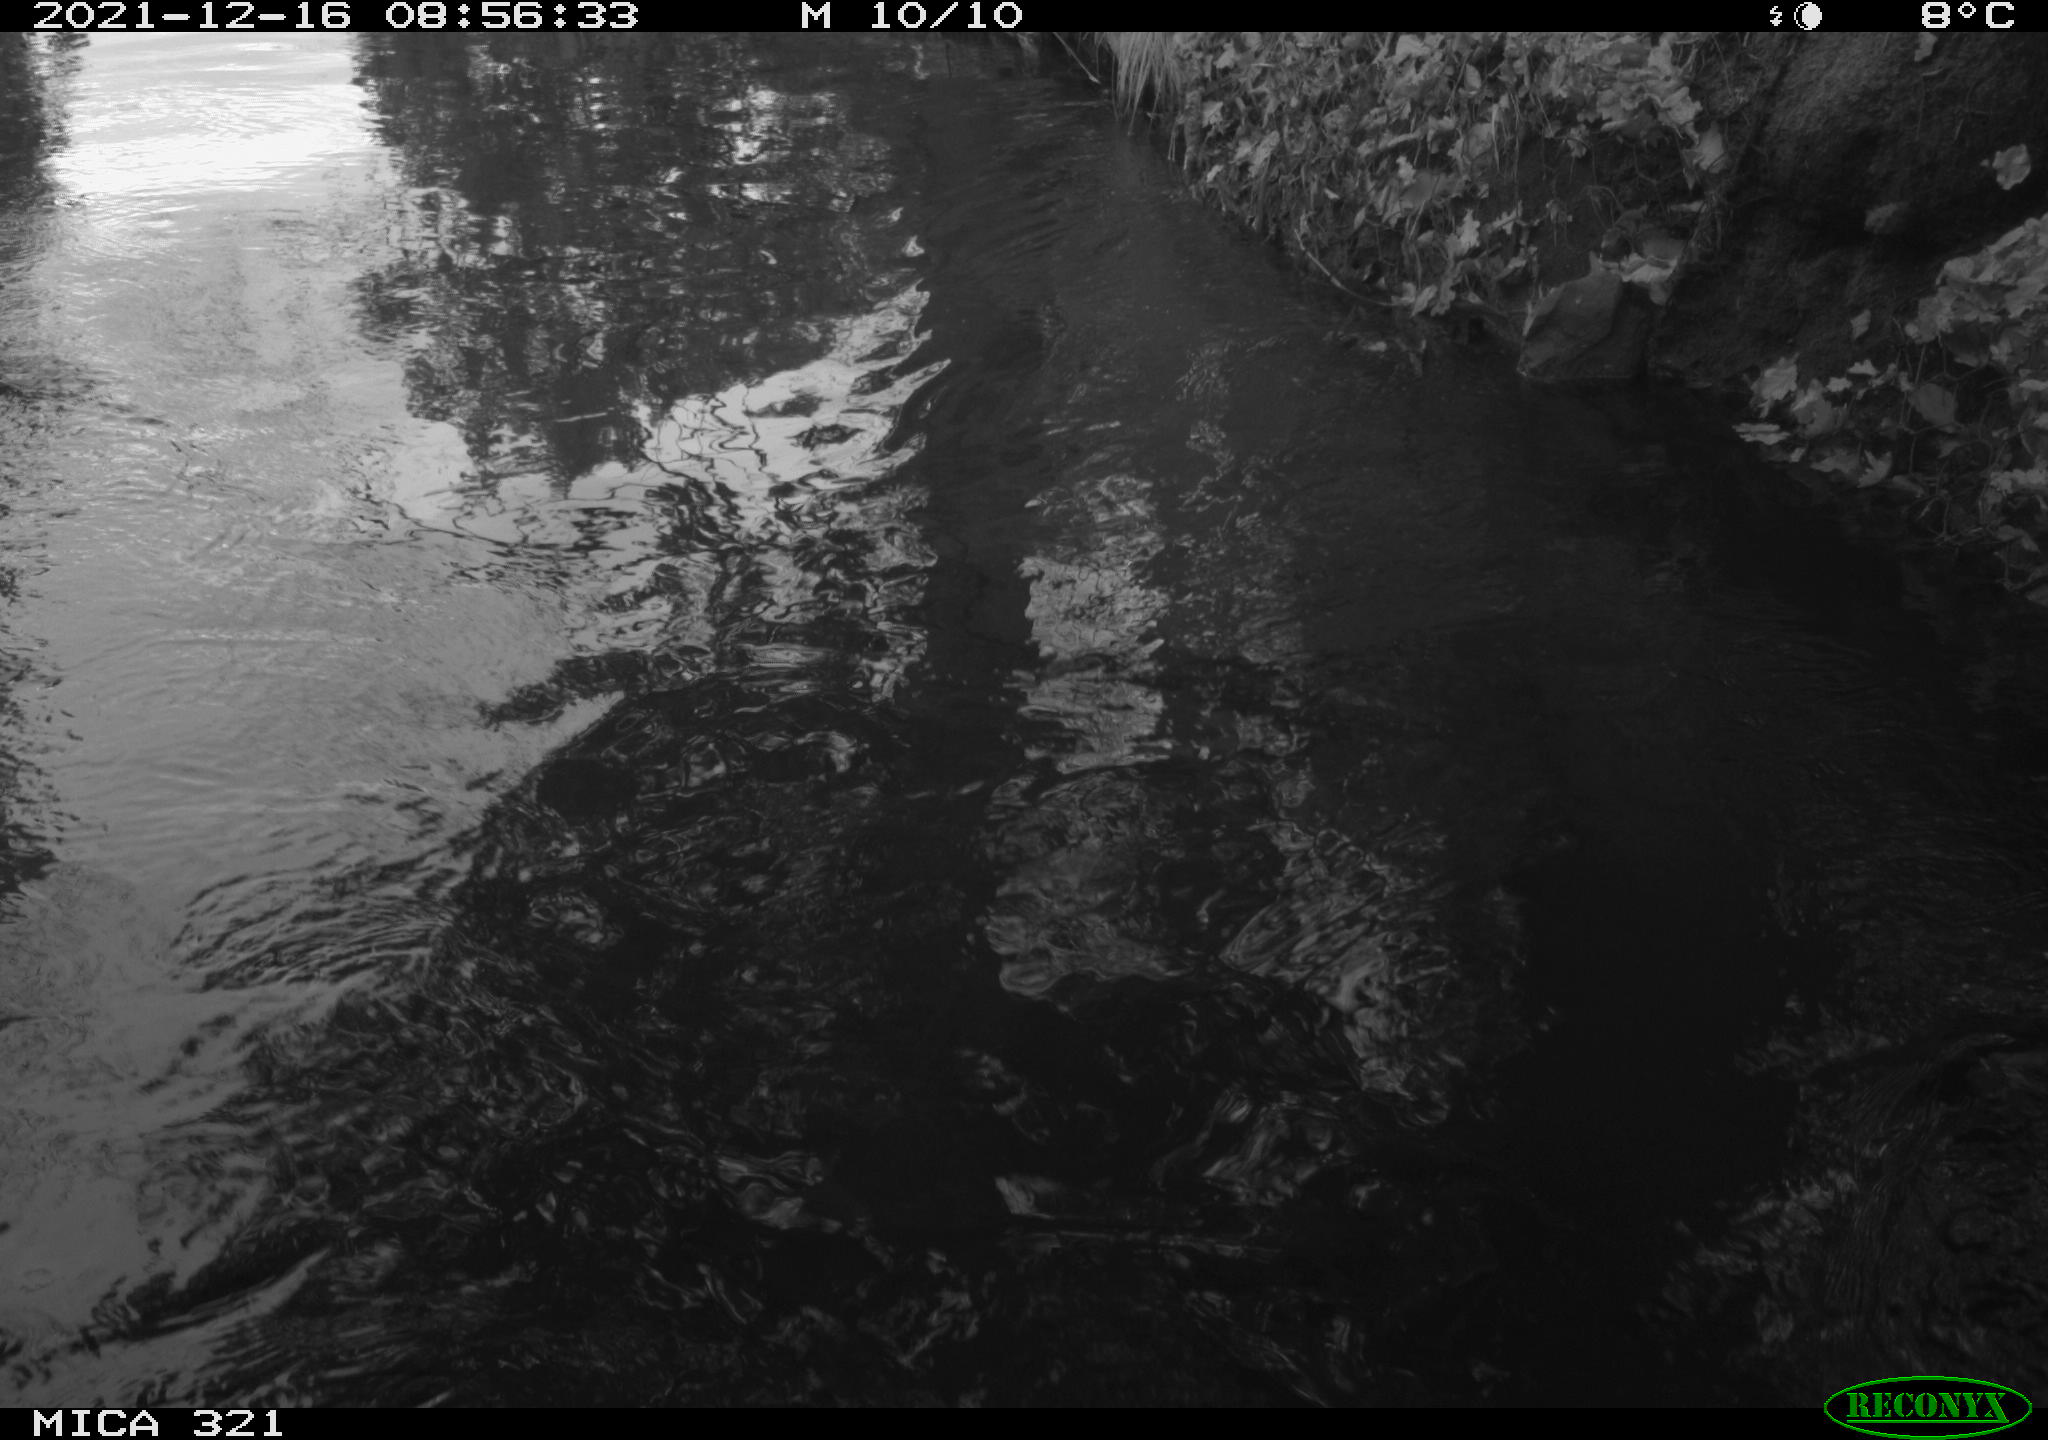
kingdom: Animalia
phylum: Chordata
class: Aves
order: Suliformes
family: Phalacrocoracidae
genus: Phalacrocorax
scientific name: Phalacrocorax carbo
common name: Great cormorant
